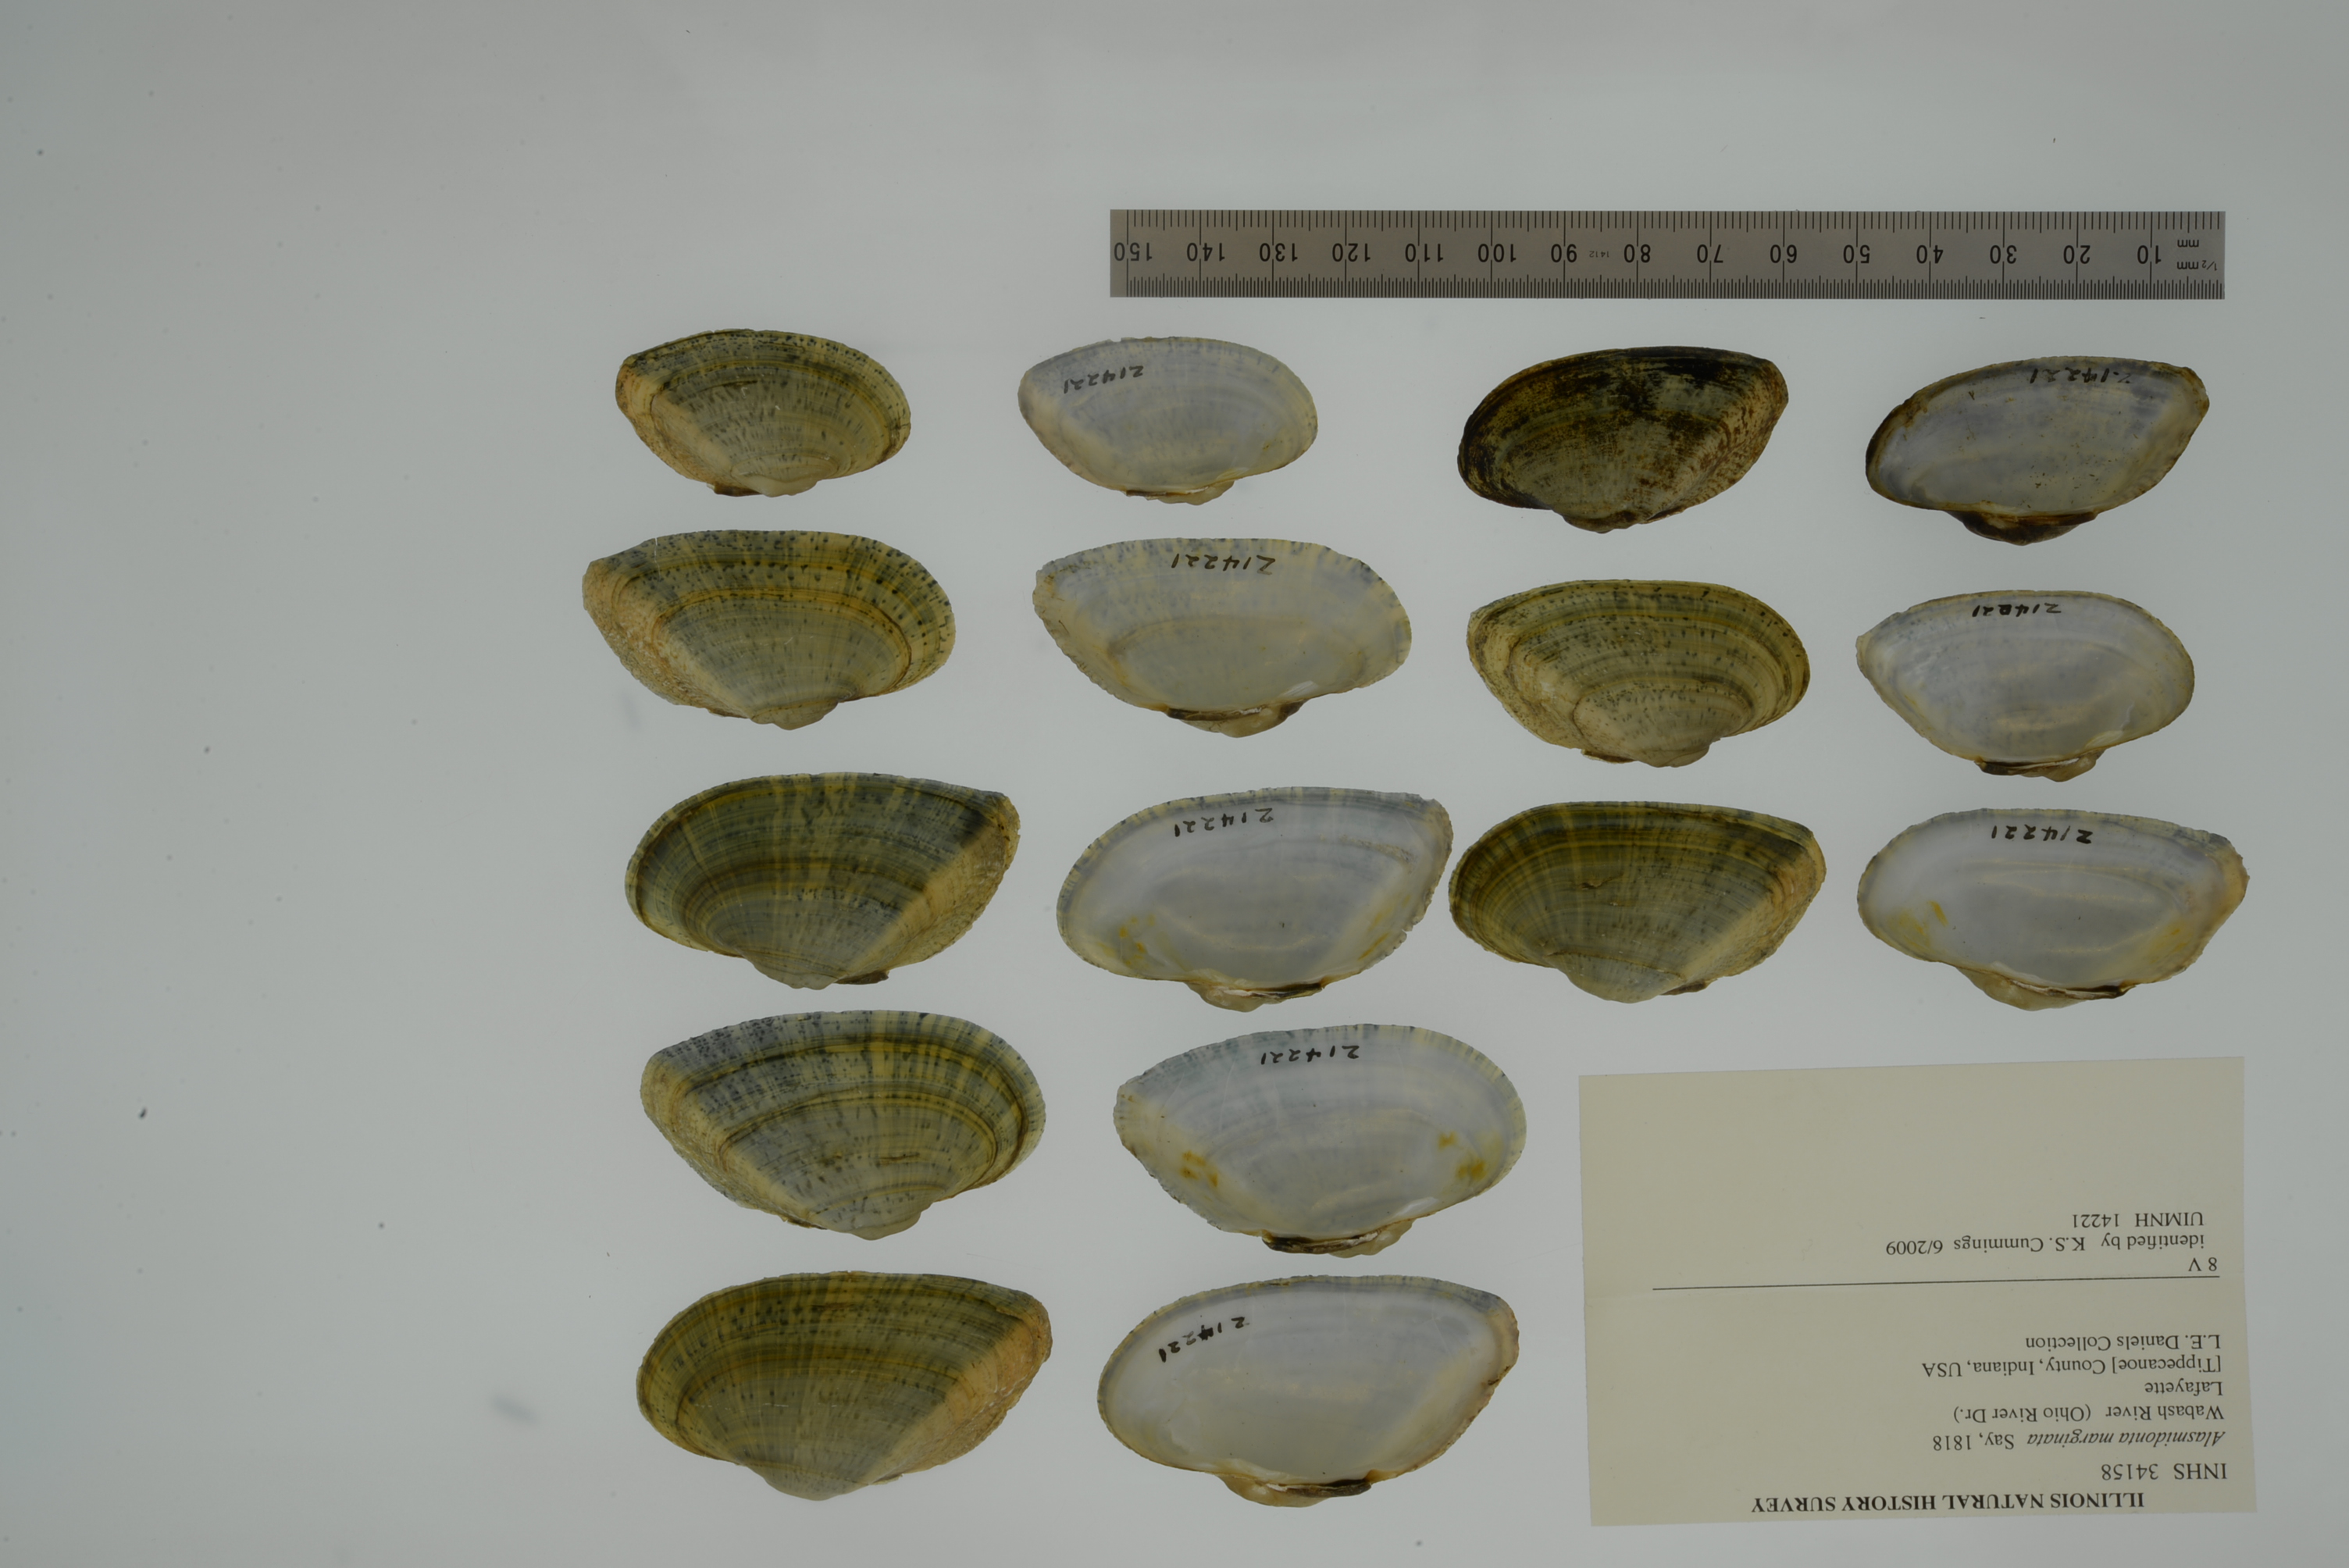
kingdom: Animalia
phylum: Mollusca
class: Bivalvia
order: Unionida
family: Unionidae
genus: Alasmidonta
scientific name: Alasmidonta marginata
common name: Elktoe
